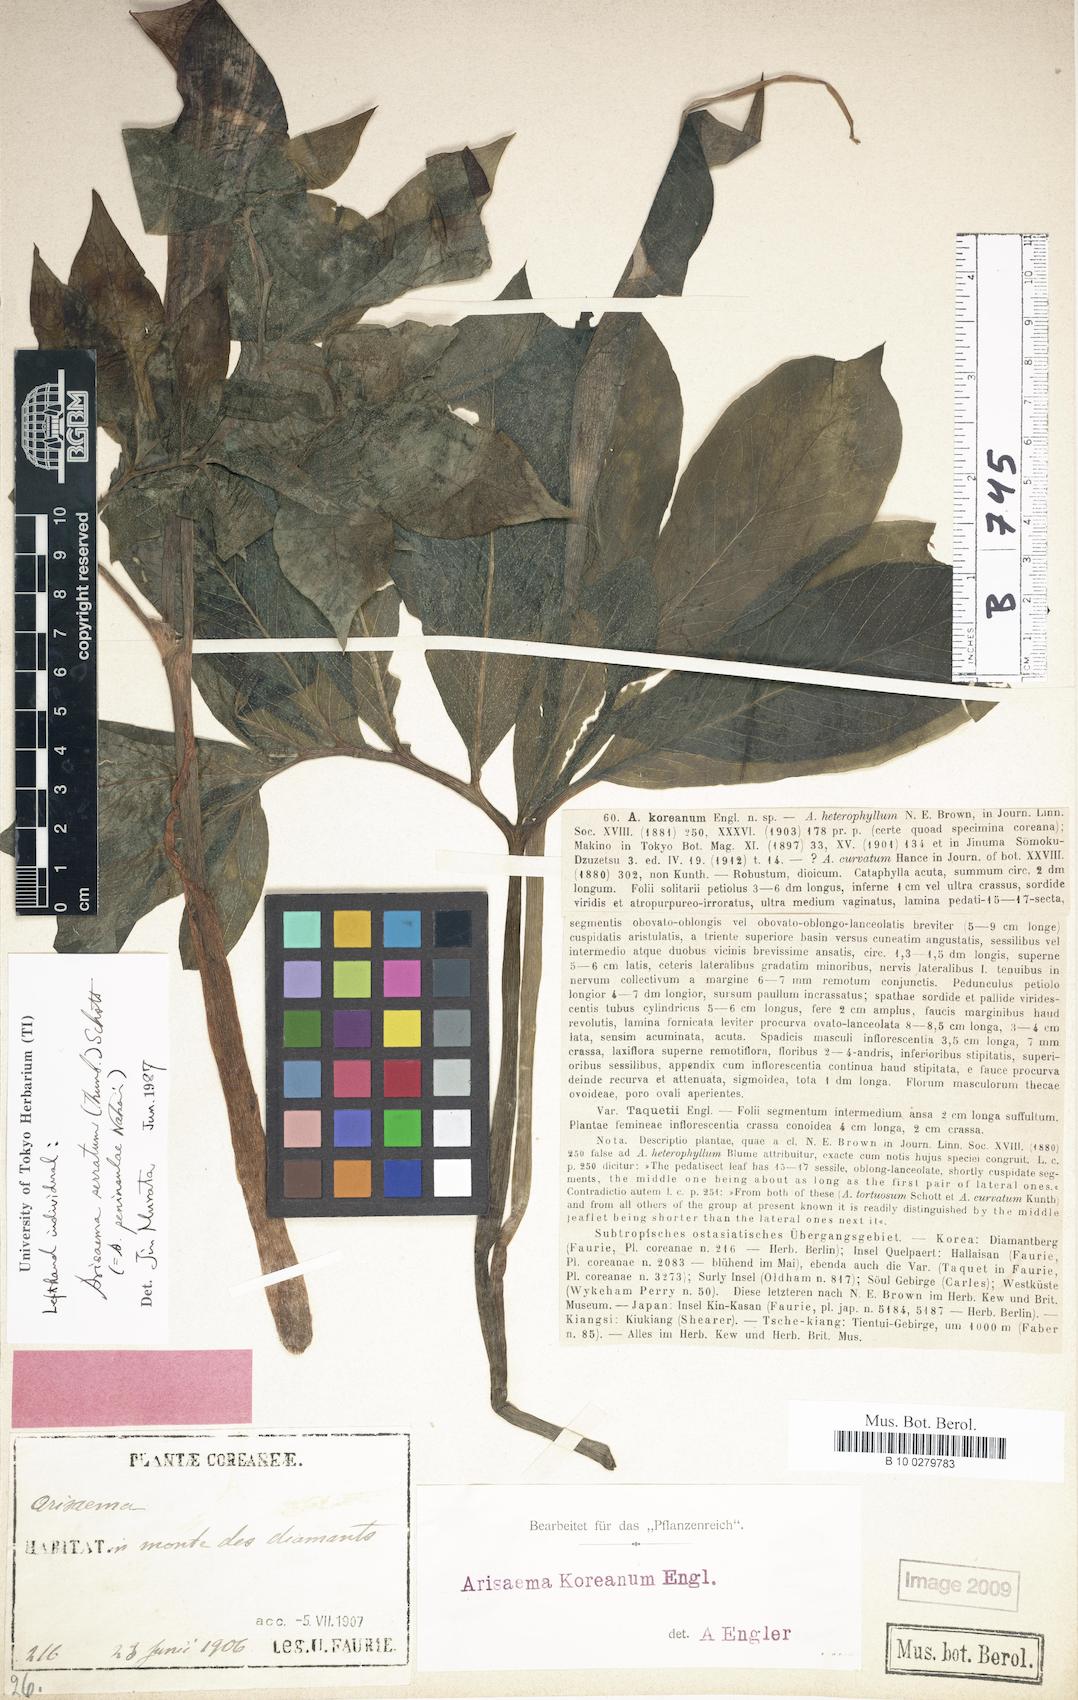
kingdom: Plantae
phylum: Tracheophyta
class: Liliopsida
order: Alismatales
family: Araceae
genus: Arisaema
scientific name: Arisaema heterophyllum
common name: Dancing crane cobra lily
